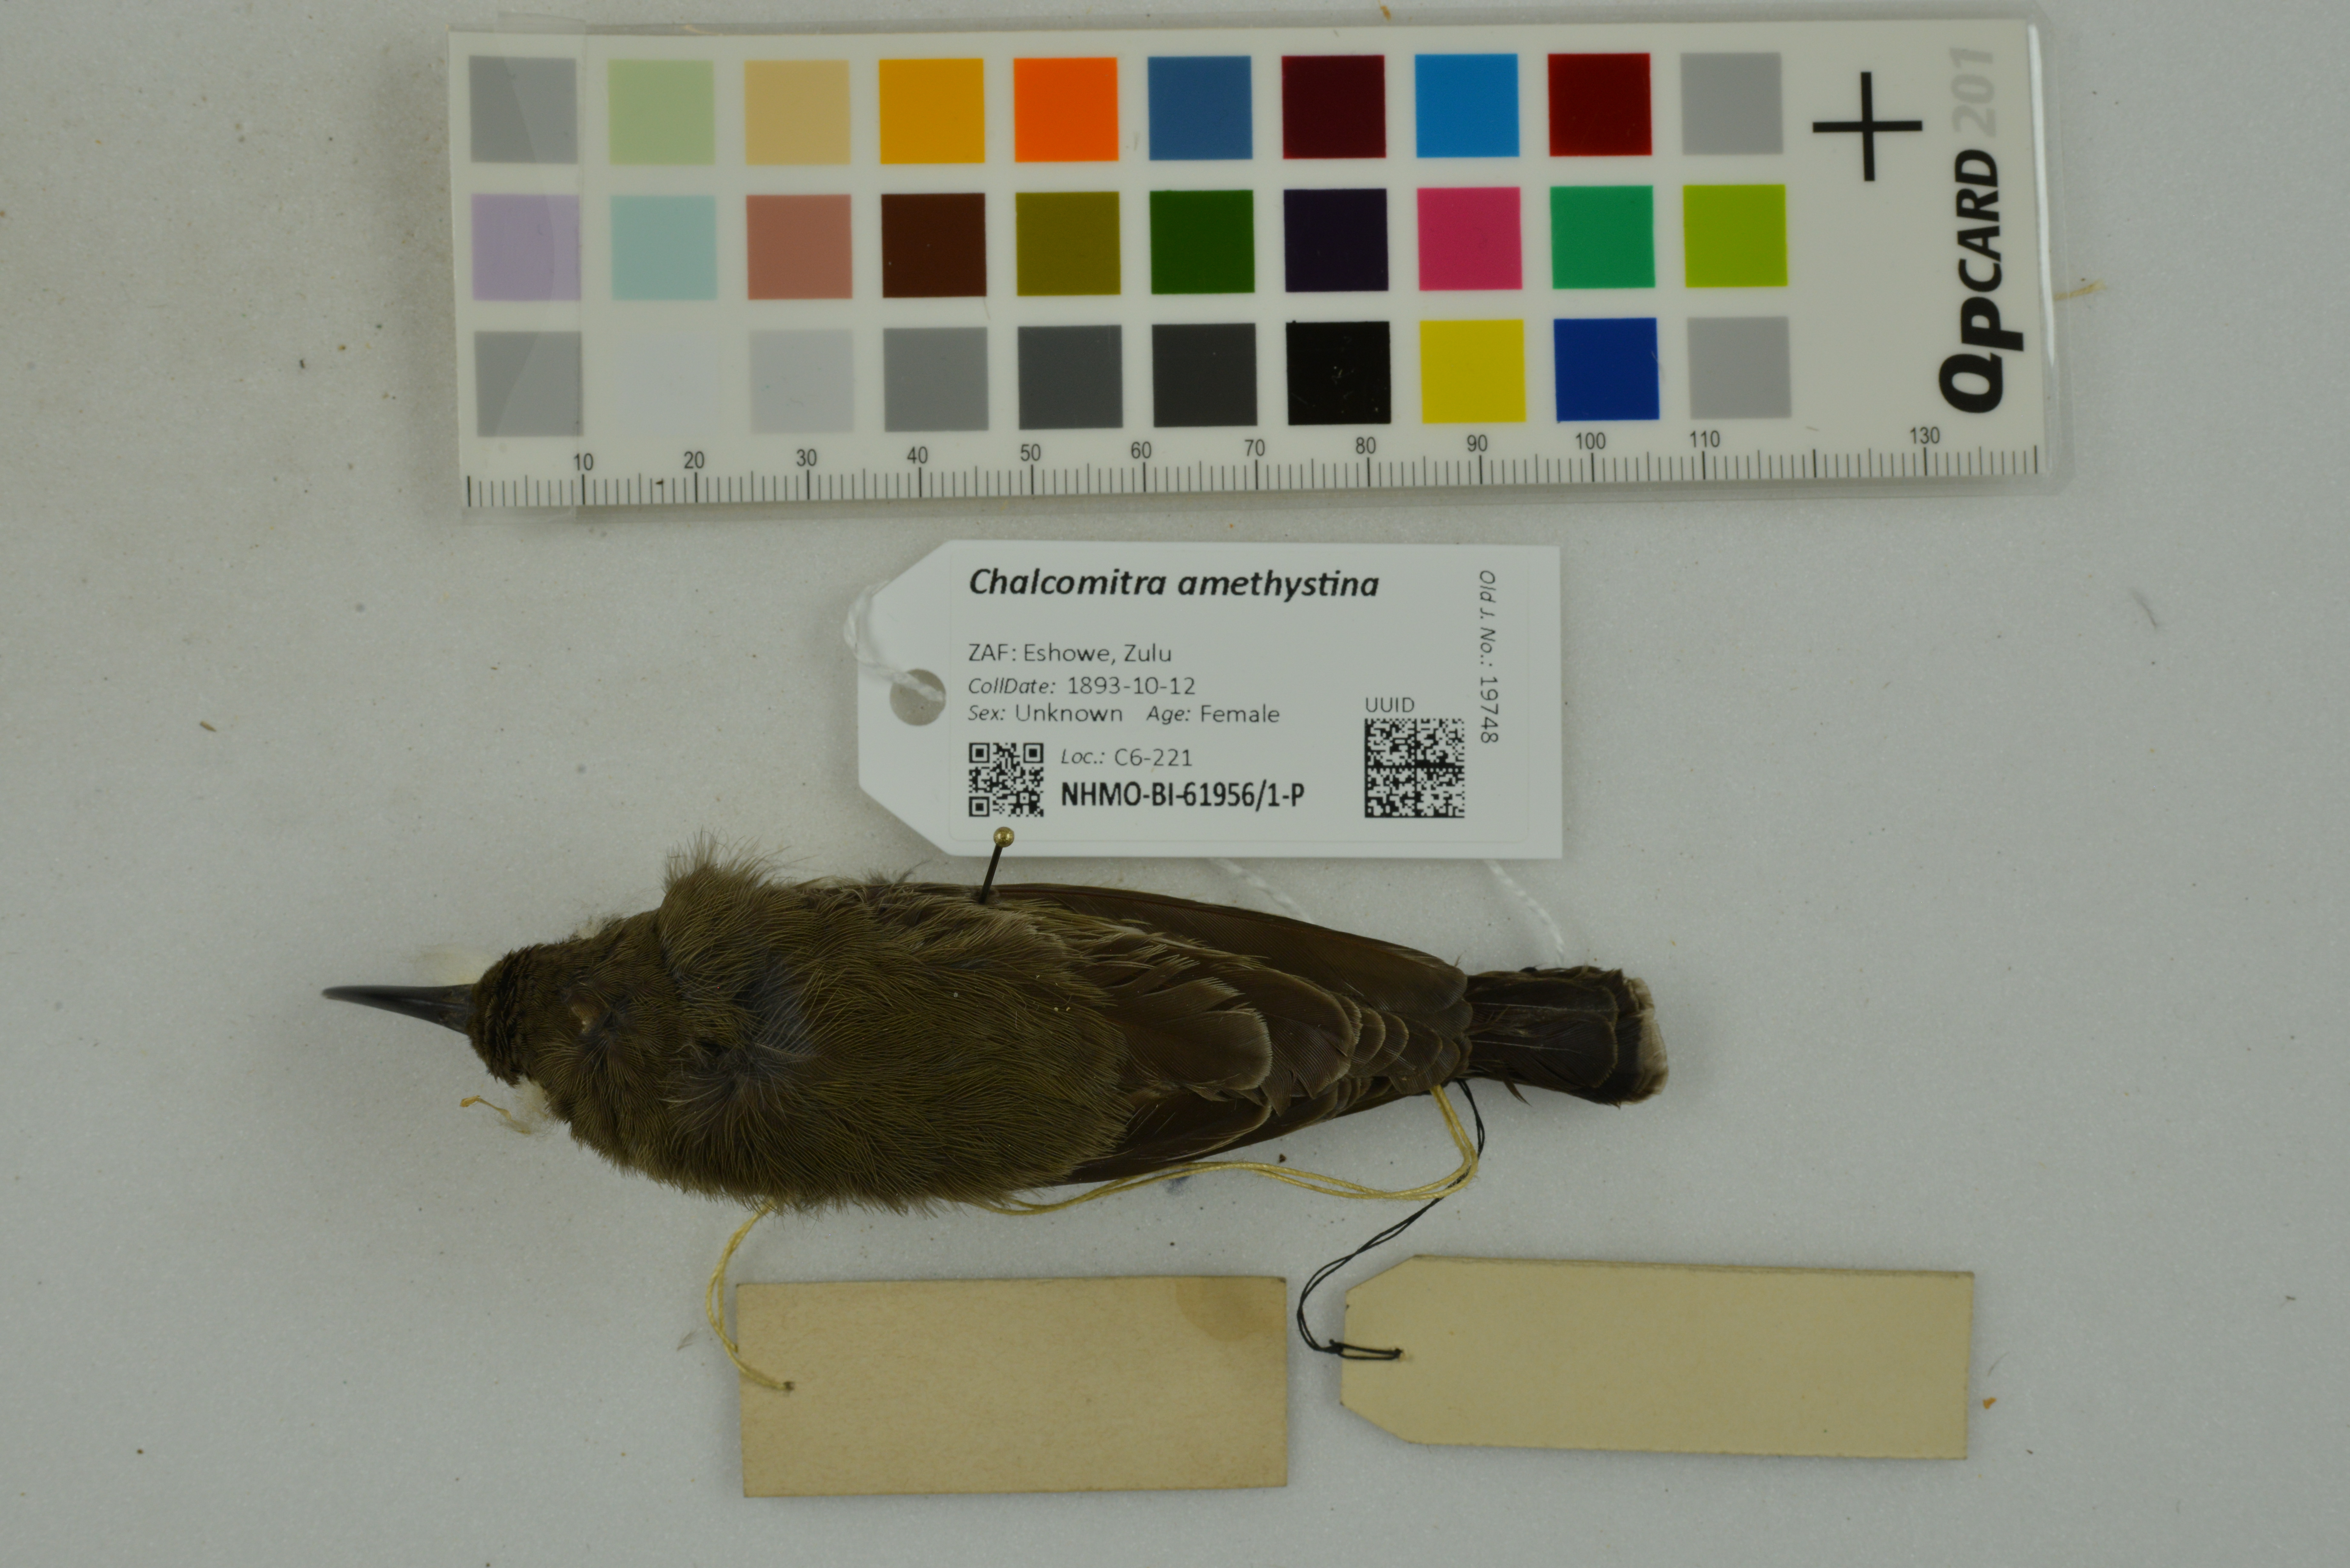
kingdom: Animalia
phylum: Chordata
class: Aves
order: Passeriformes
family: Nectariniidae
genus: Chalcomitra
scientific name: Chalcomitra amethystina
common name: Amethyst sunbird
